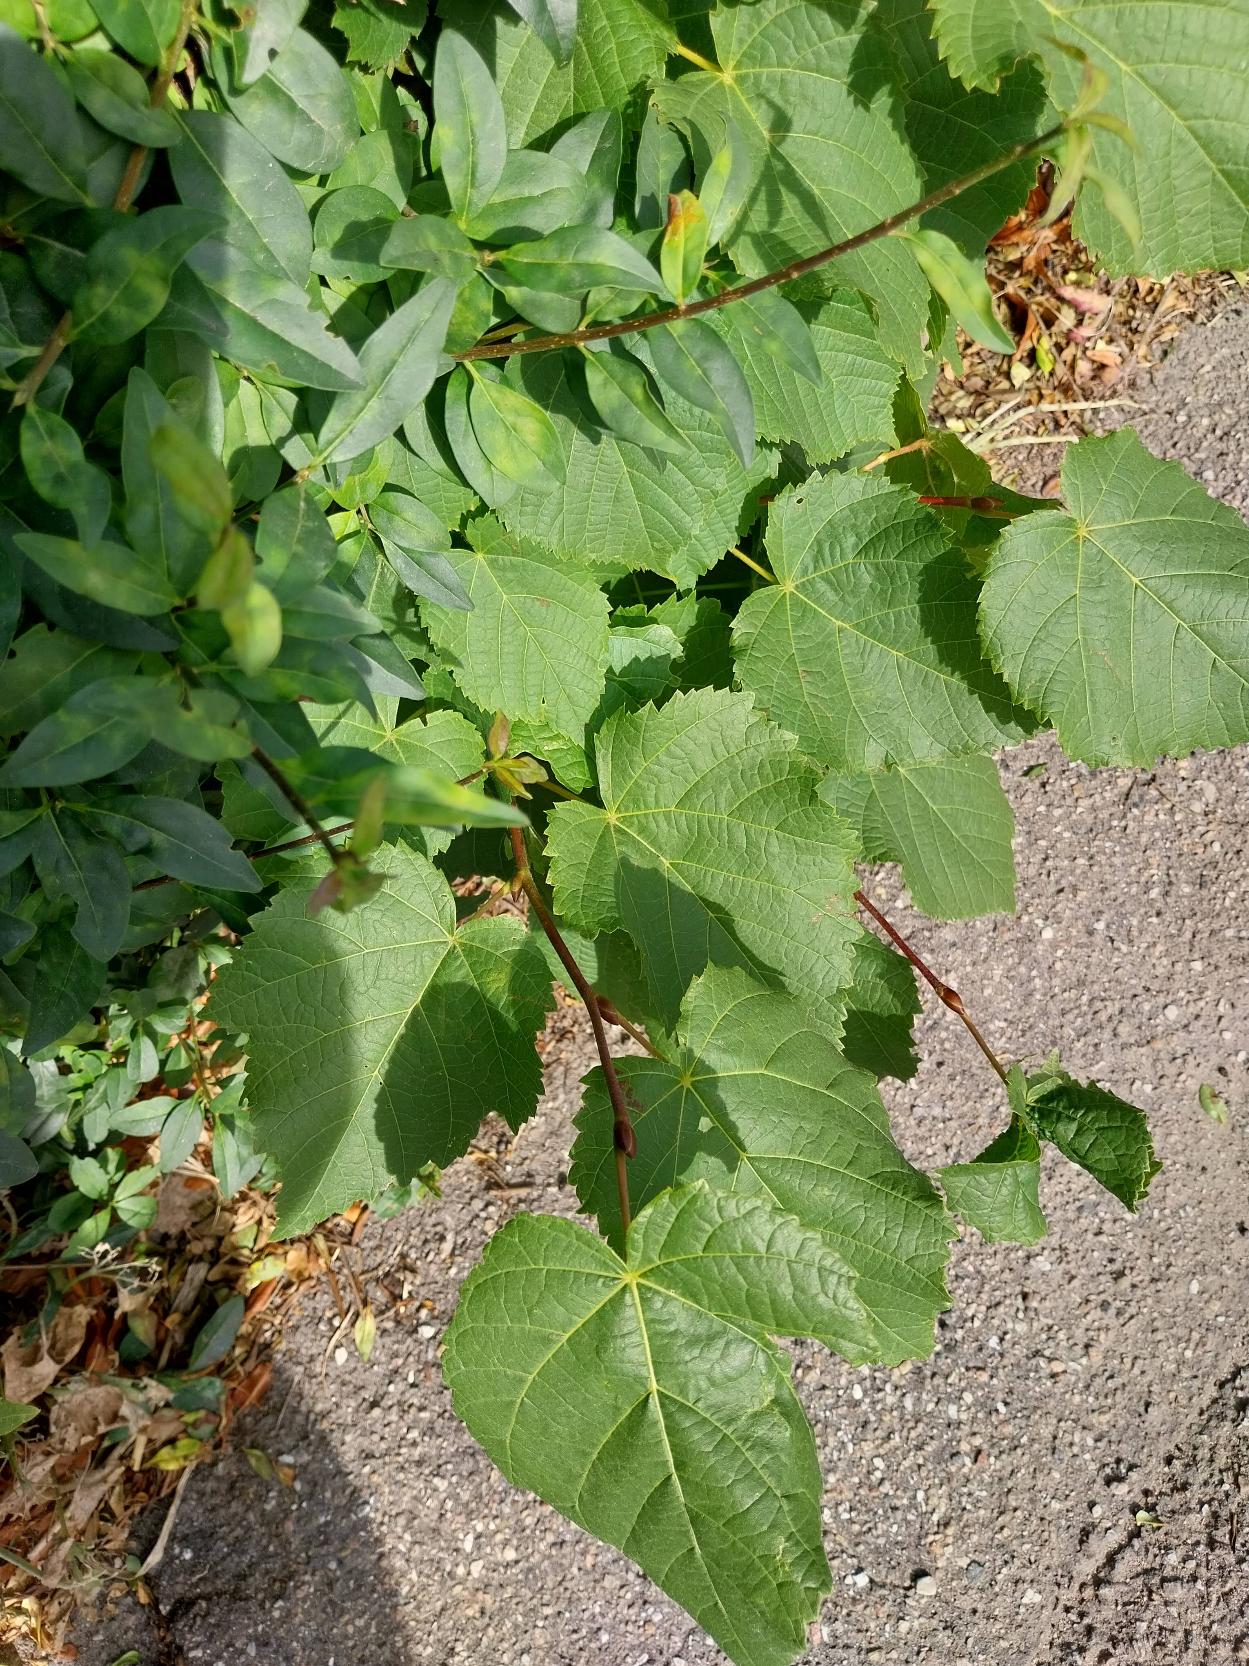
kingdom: Plantae
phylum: Tracheophyta
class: Magnoliopsida
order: Malvales
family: Malvaceae
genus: Tilia
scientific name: Tilia europaea
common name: Park-lind
